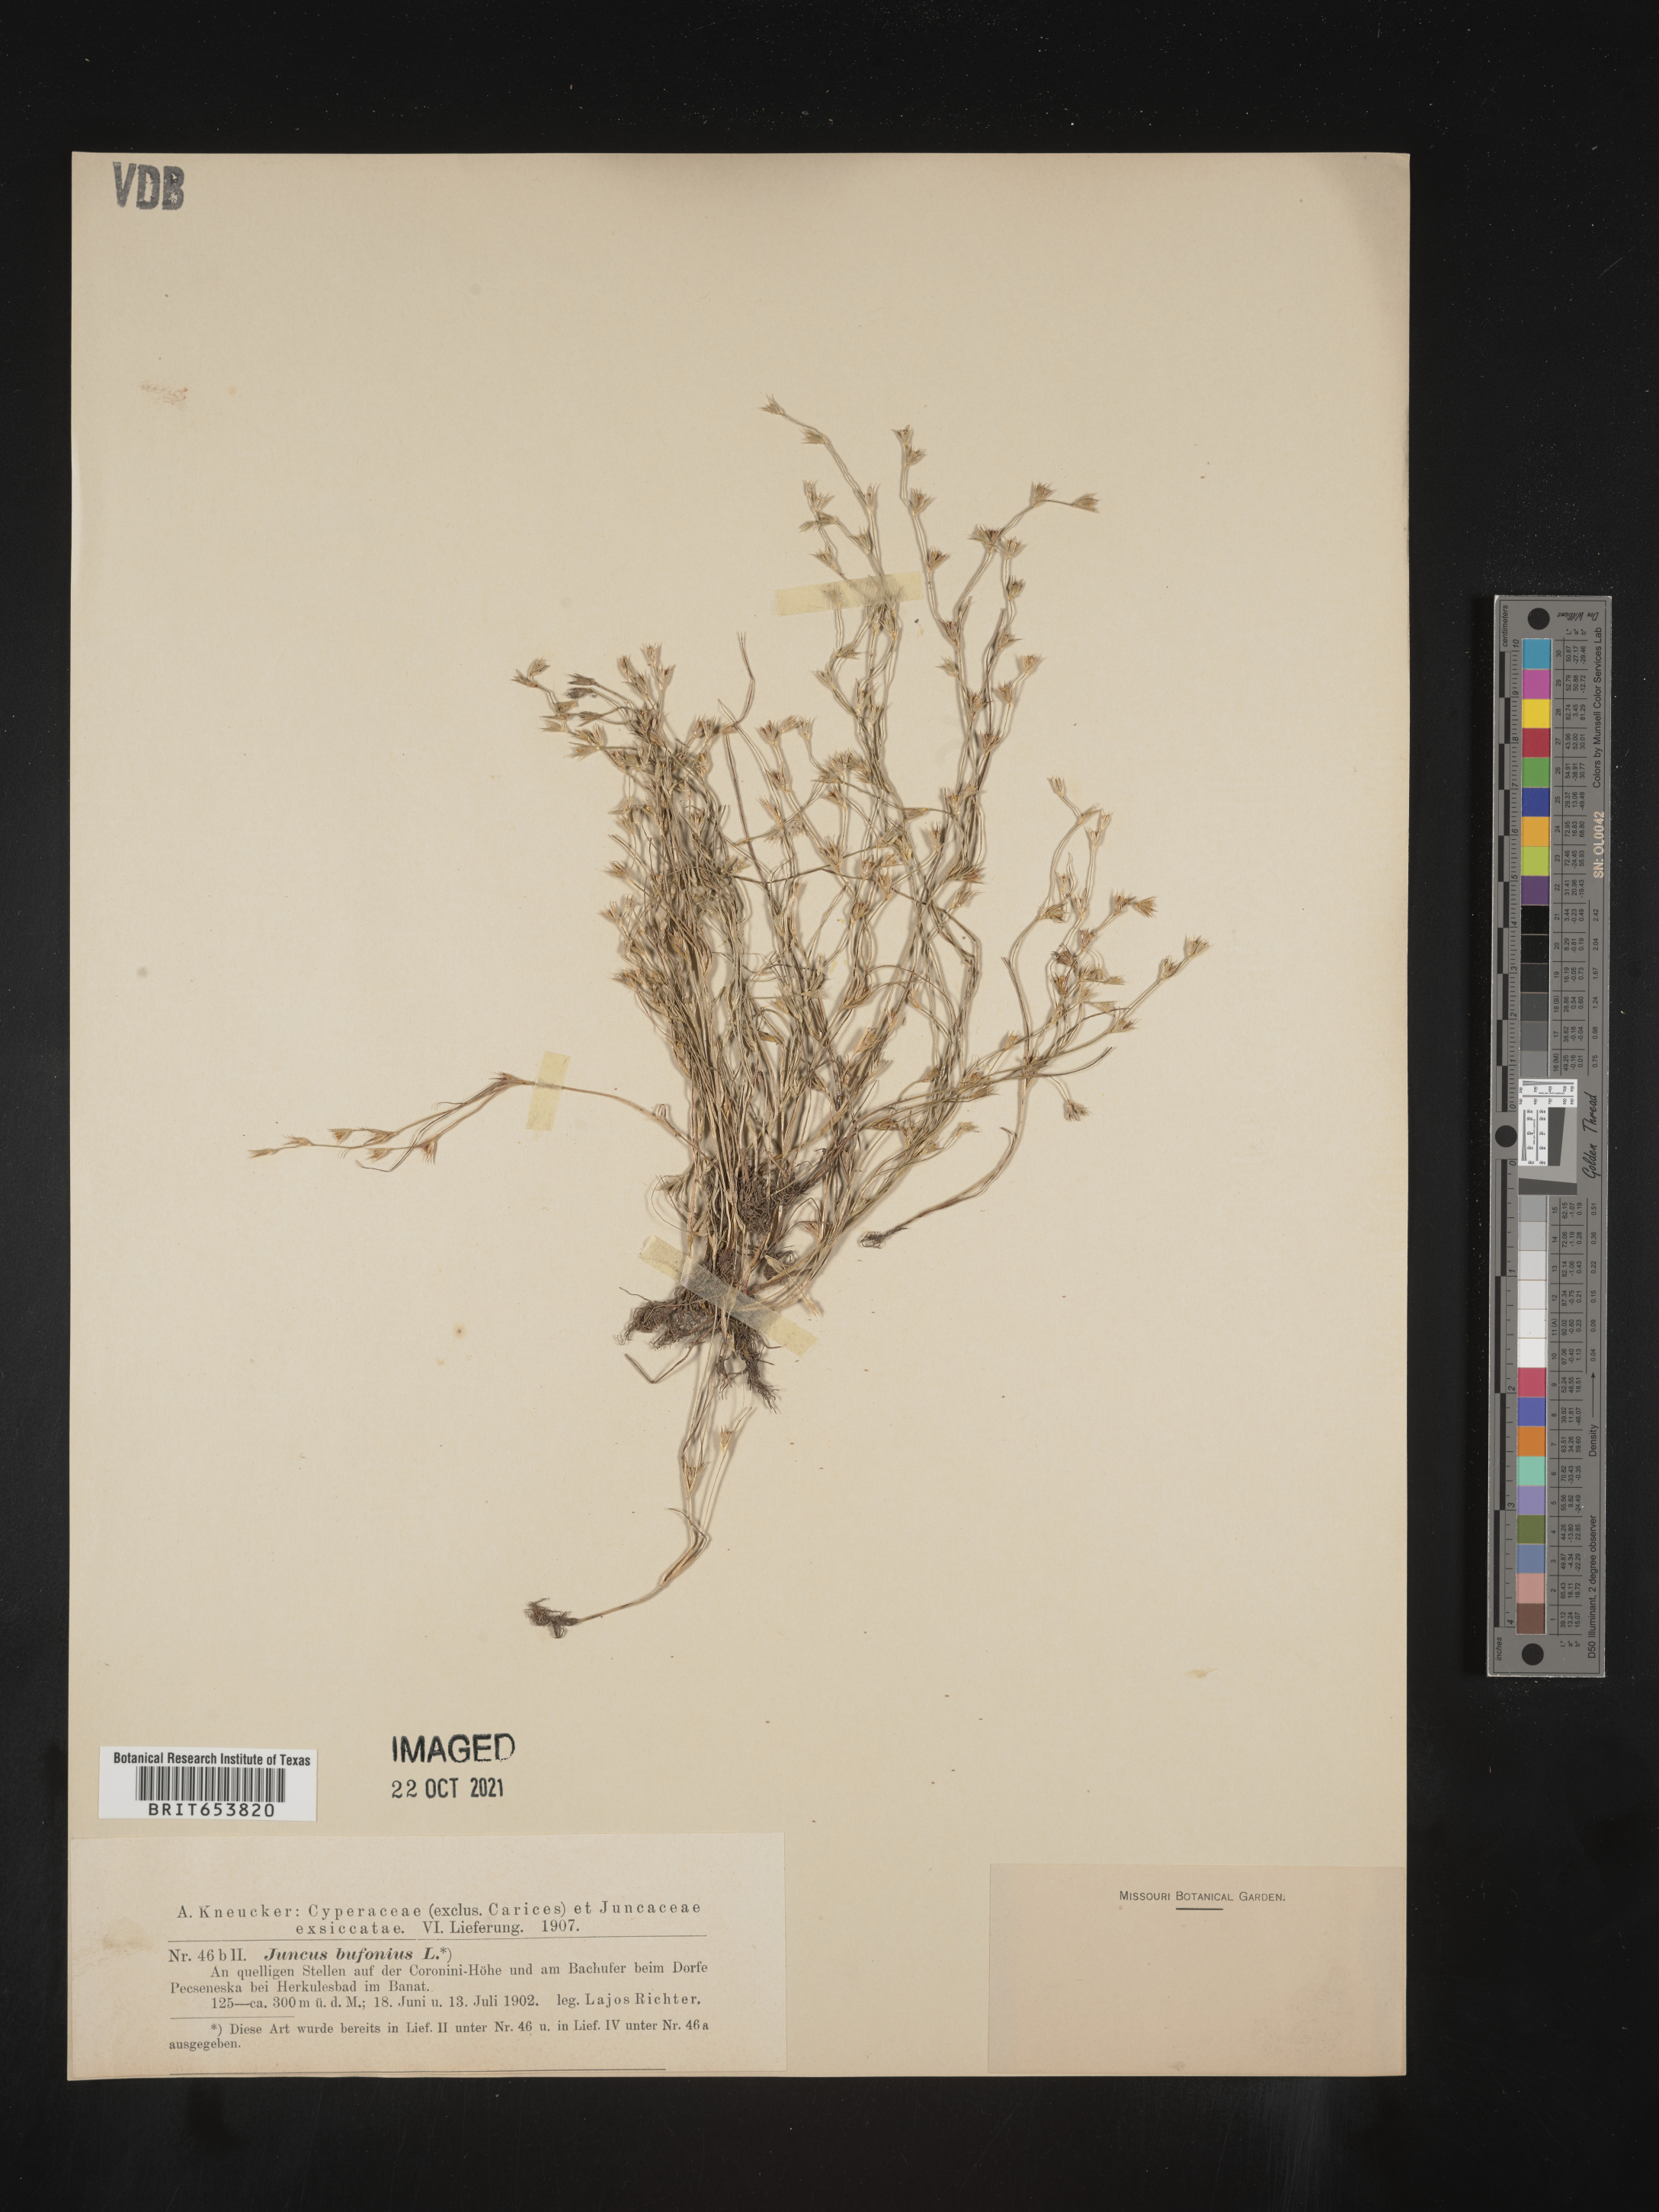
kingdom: Plantae
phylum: Tracheophyta
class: Liliopsida
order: Poales
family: Juncaceae
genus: Juncus
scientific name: Juncus bufonius
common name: Toad rush
